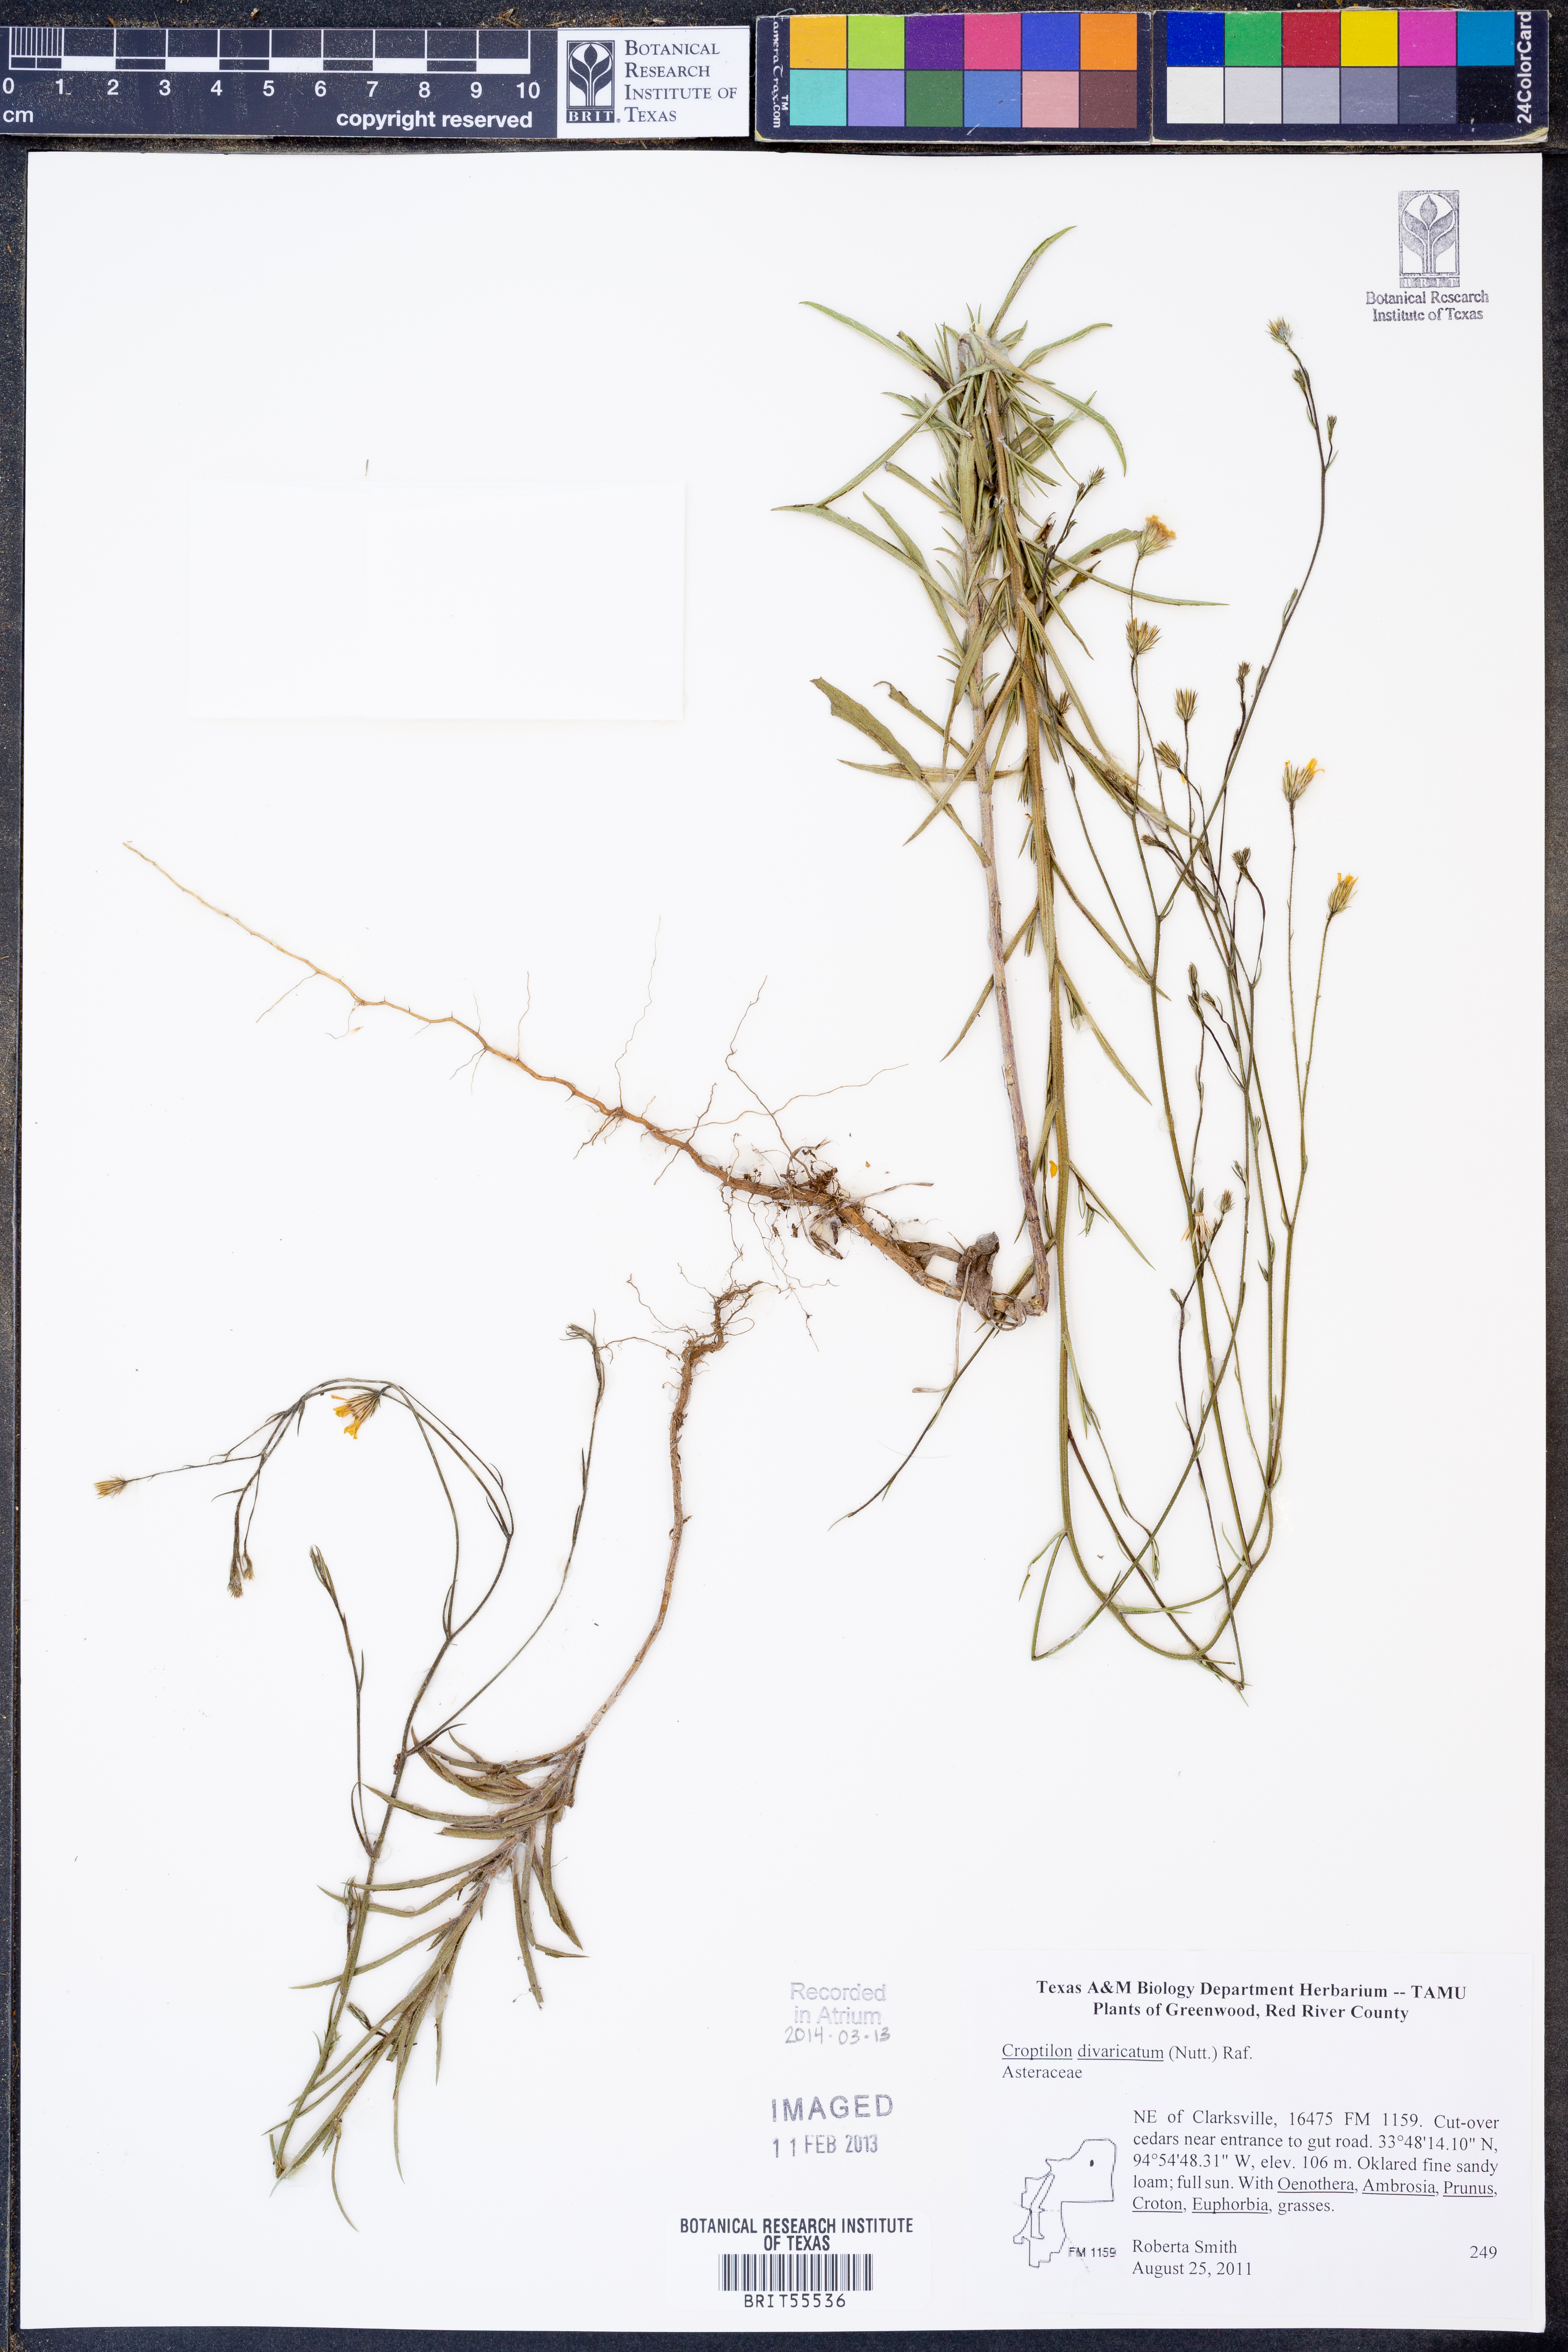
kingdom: Plantae
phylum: Tracheophyta
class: Magnoliopsida
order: Asterales
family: Asteraceae
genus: Croptilon
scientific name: Croptilon divaricatum
